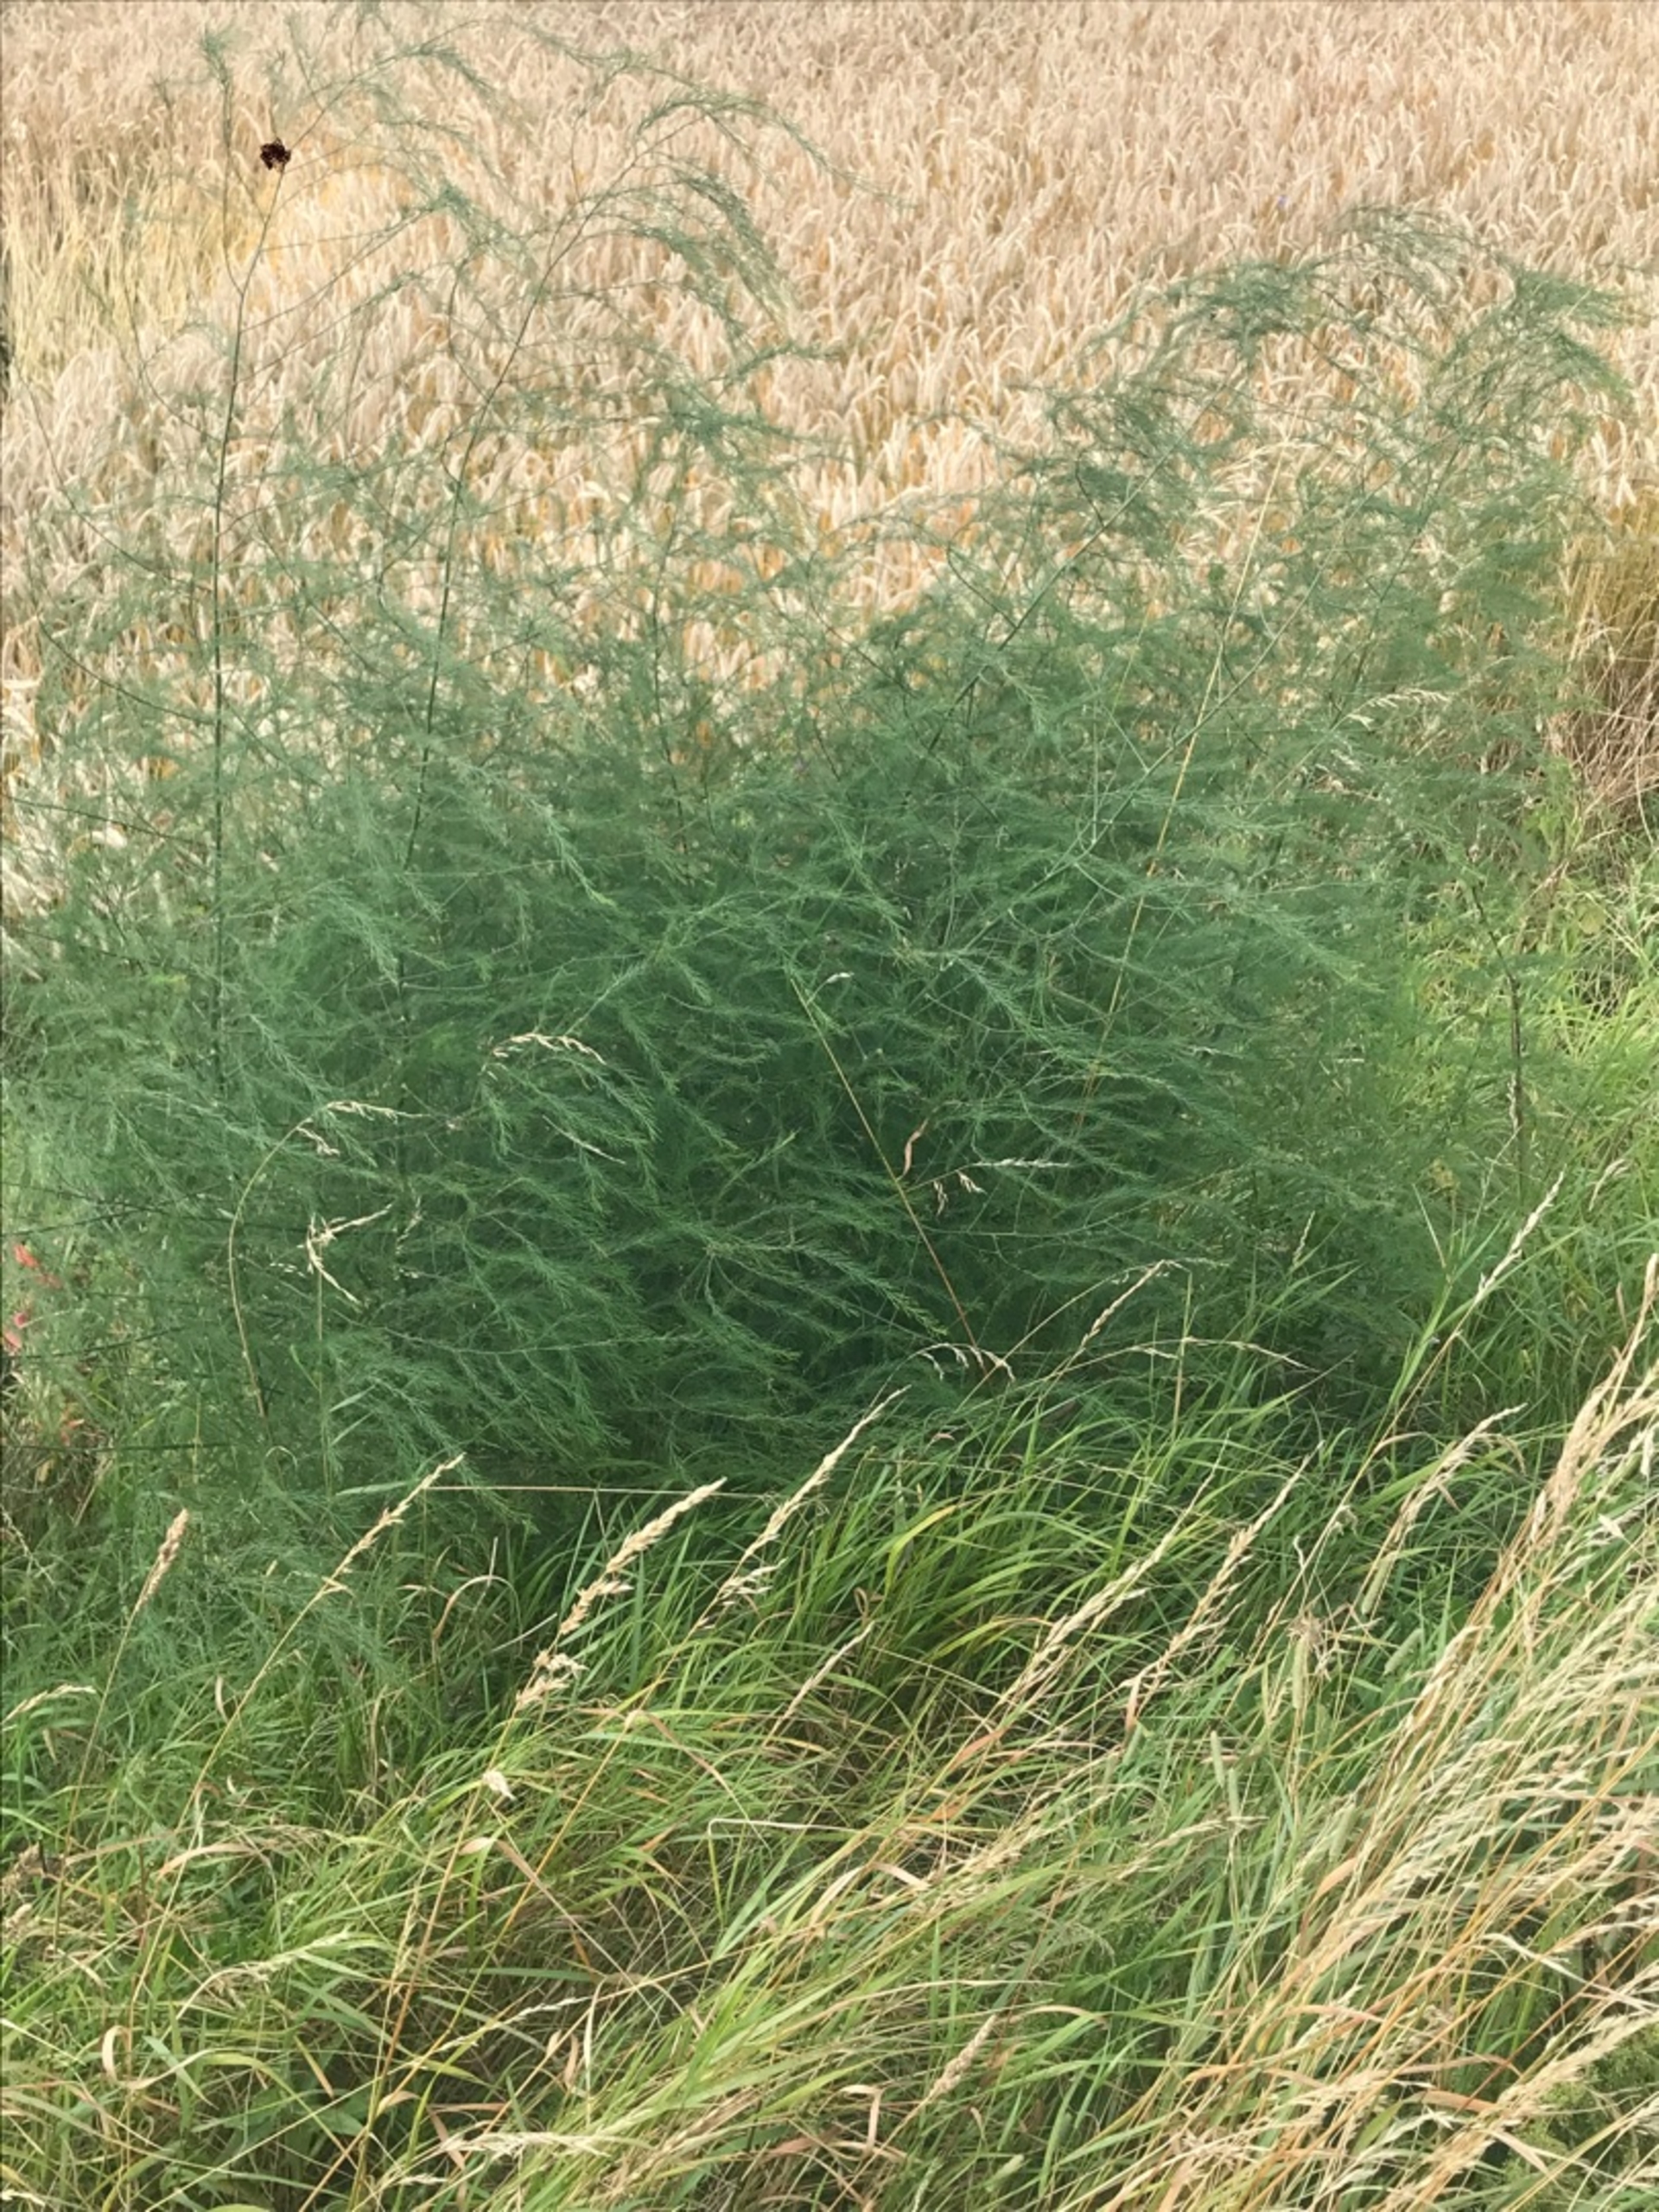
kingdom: Plantae
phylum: Tracheophyta
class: Liliopsida
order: Asparagales
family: Asparagaceae
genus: Asparagus
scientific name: Asparagus officinalis
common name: Asparges
